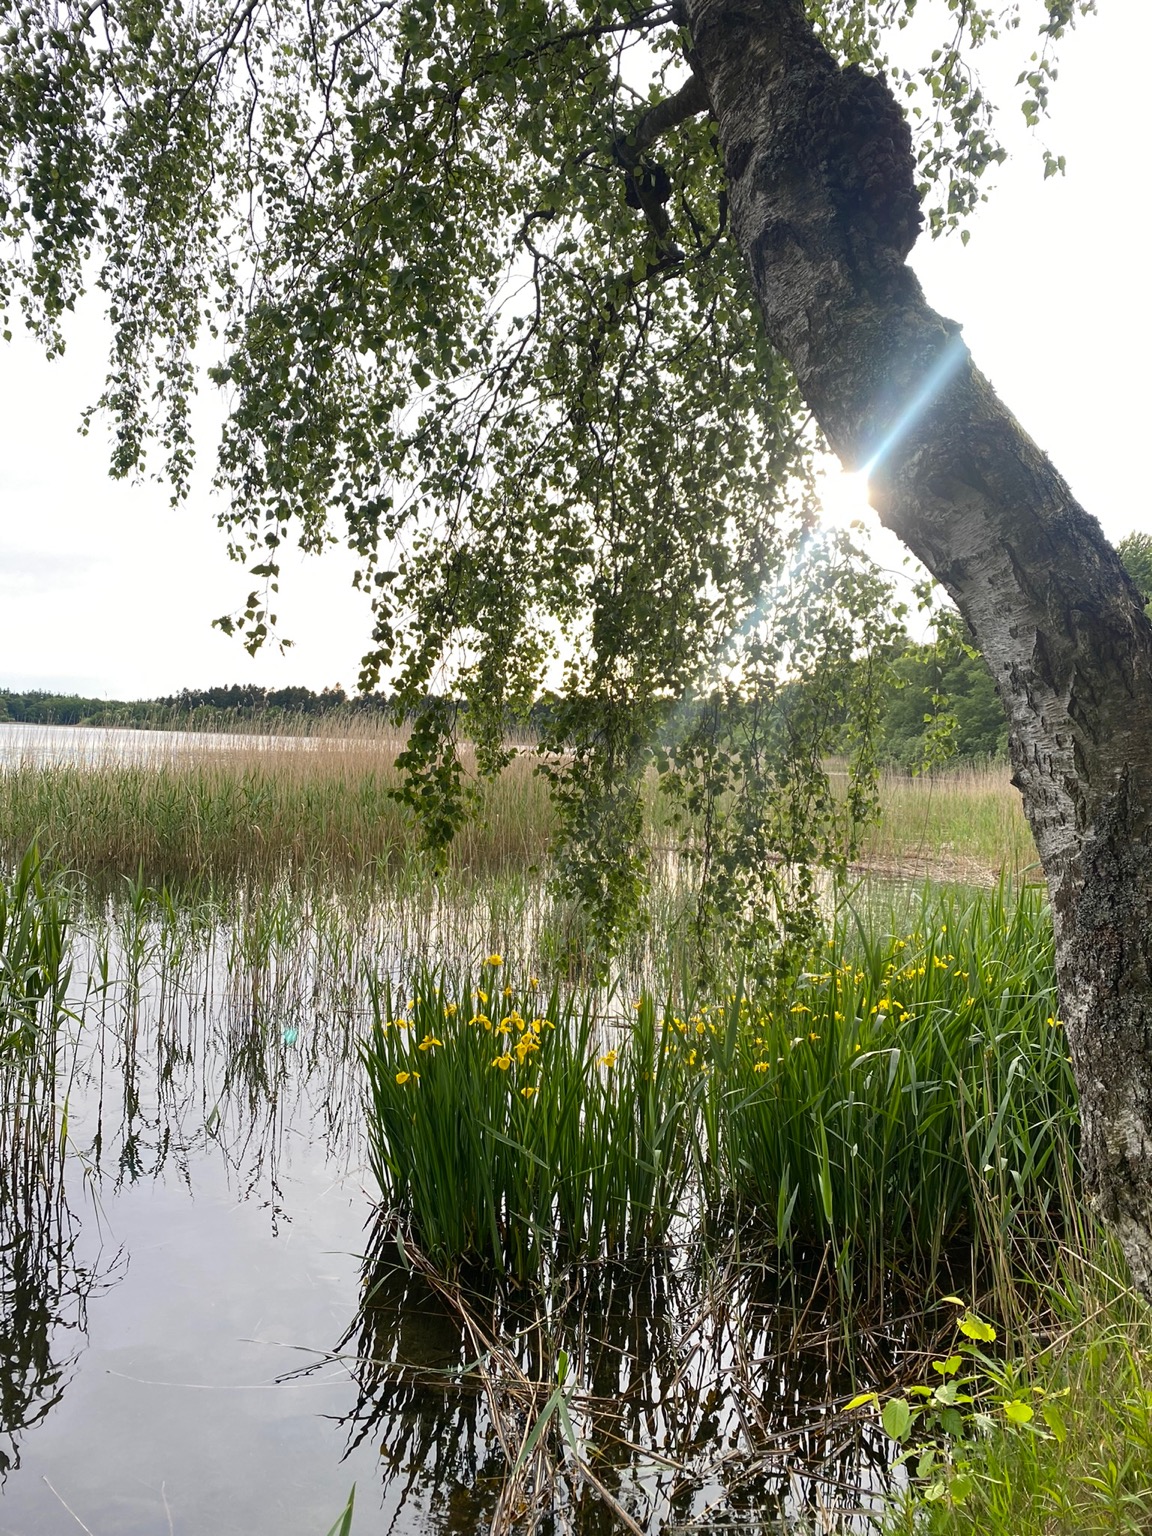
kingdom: Plantae
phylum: Tracheophyta
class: Liliopsida
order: Asparagales
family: Iridaceae
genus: Iris
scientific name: Iris pseudacorus
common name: Gul iris
